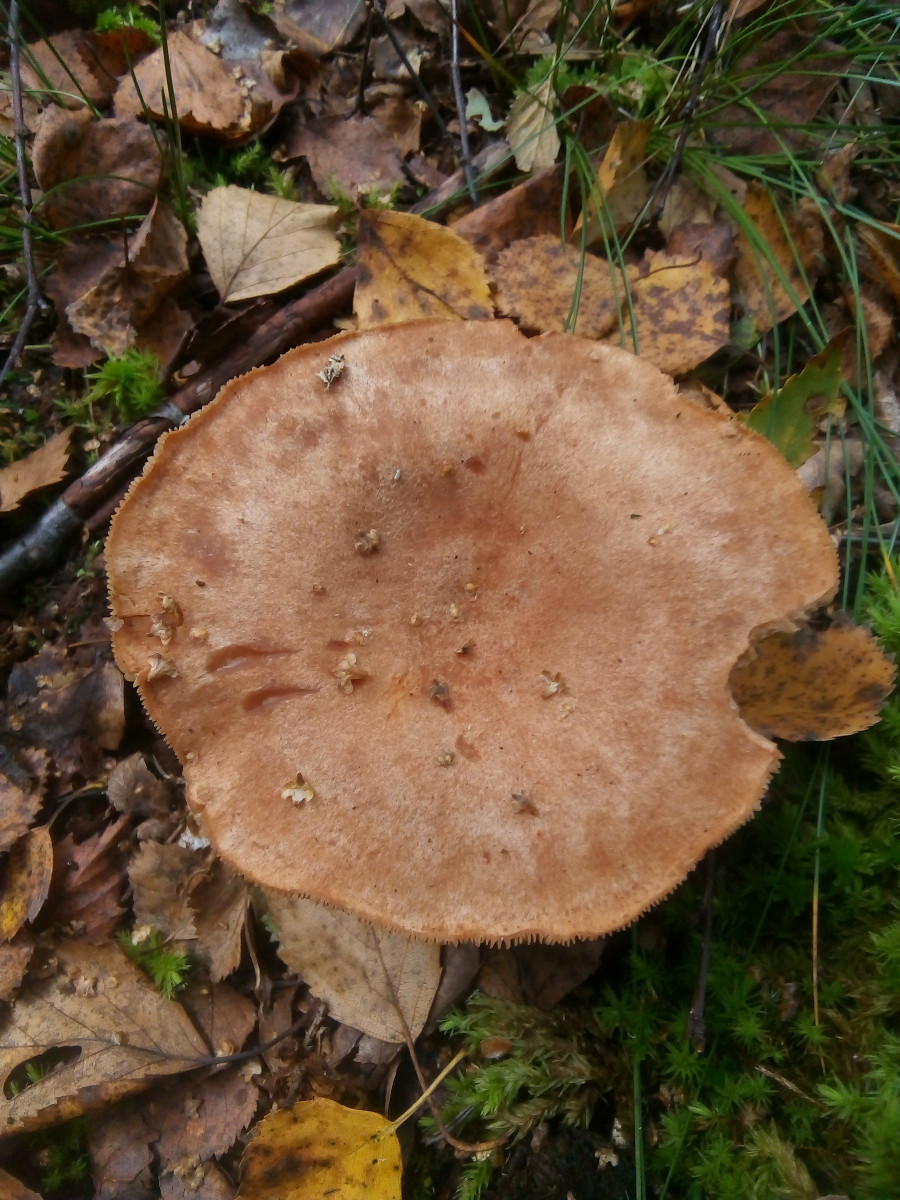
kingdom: Fungi
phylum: Basidiomycota
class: Agaricomycetes
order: Russulales
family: Russulaceae
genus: Lactarius
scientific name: Lactarius helvus
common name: mose-mælkehat
